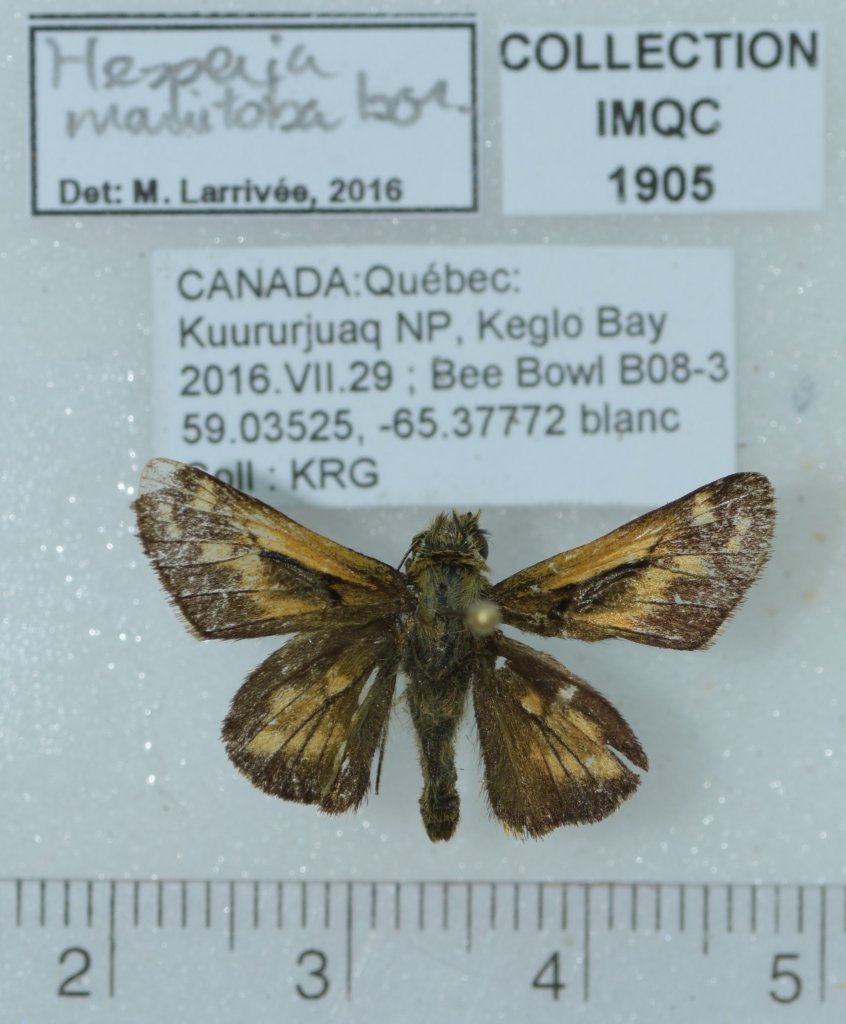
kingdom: Animalia
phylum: Arthropoda
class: Insecta
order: Lepidoptera
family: Hesperiidae
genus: Hesperia
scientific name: Hesperia comma
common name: Common Branded Skipper
